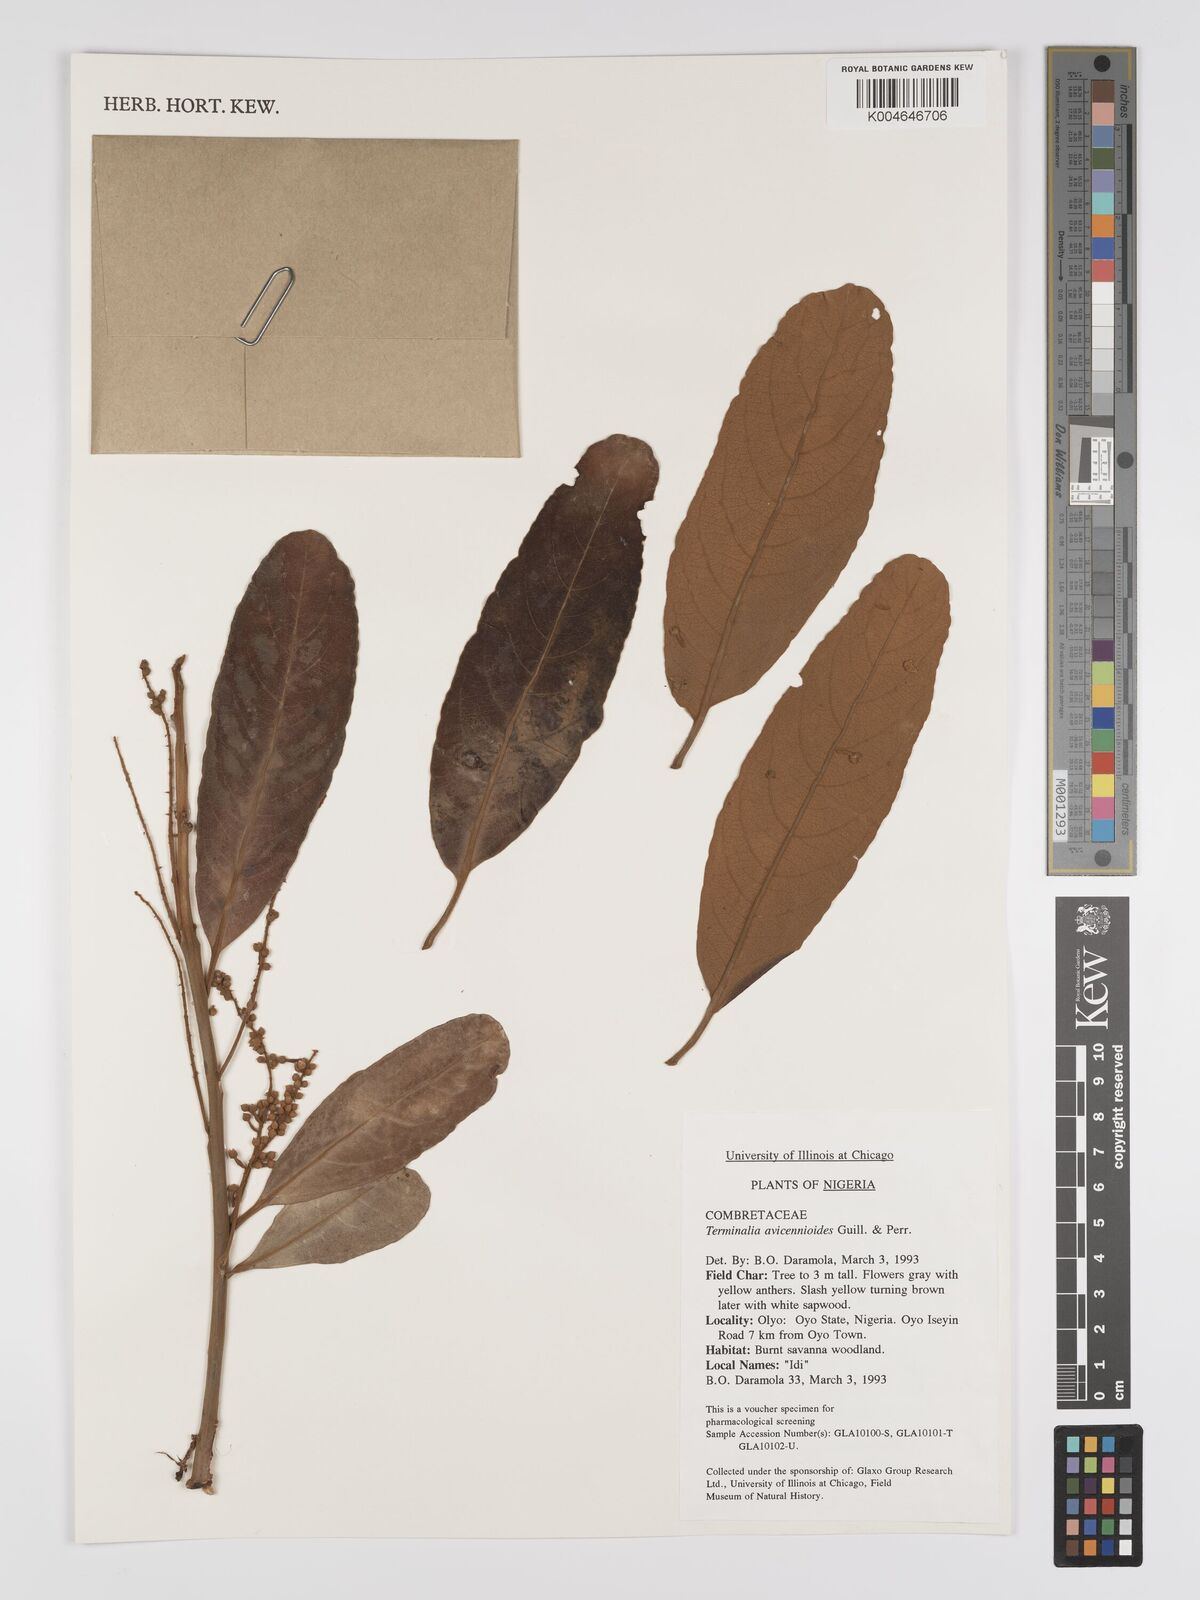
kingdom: Plantae
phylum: Tracheophyta
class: Magnoliopsida
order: Myrtales
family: Combretaceae
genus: Terminalia
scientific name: Terminalia avicennioides
